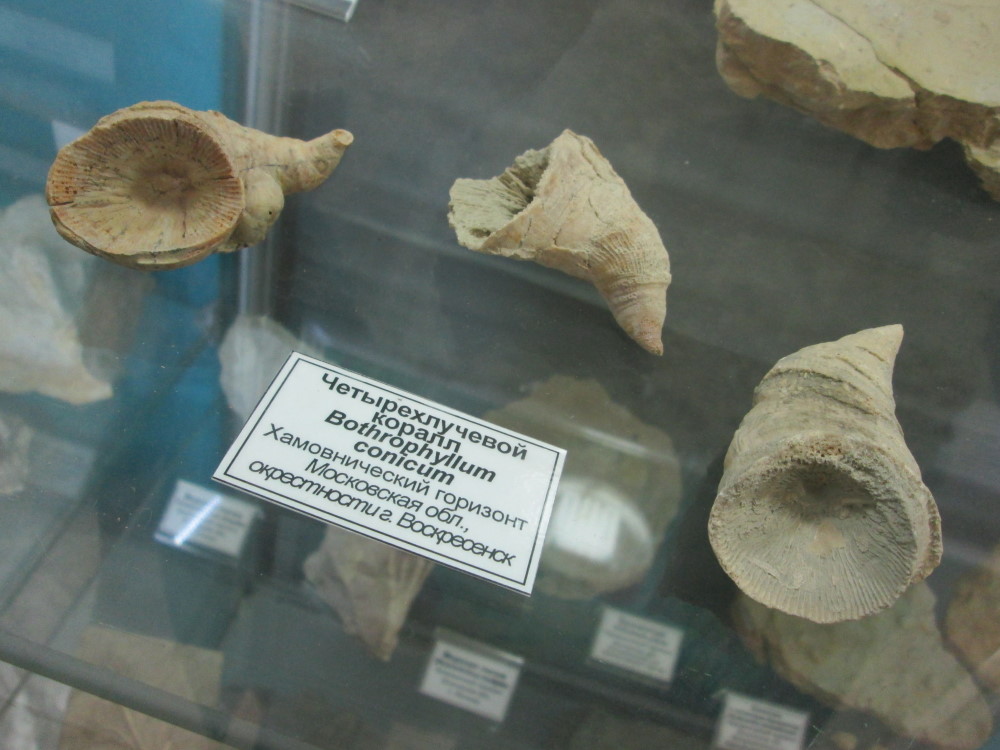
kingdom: Animalia
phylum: Cnidaria
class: Anthozoa
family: Bothrophyllidae
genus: Bothrophyllum
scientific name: Bothrophyllum
